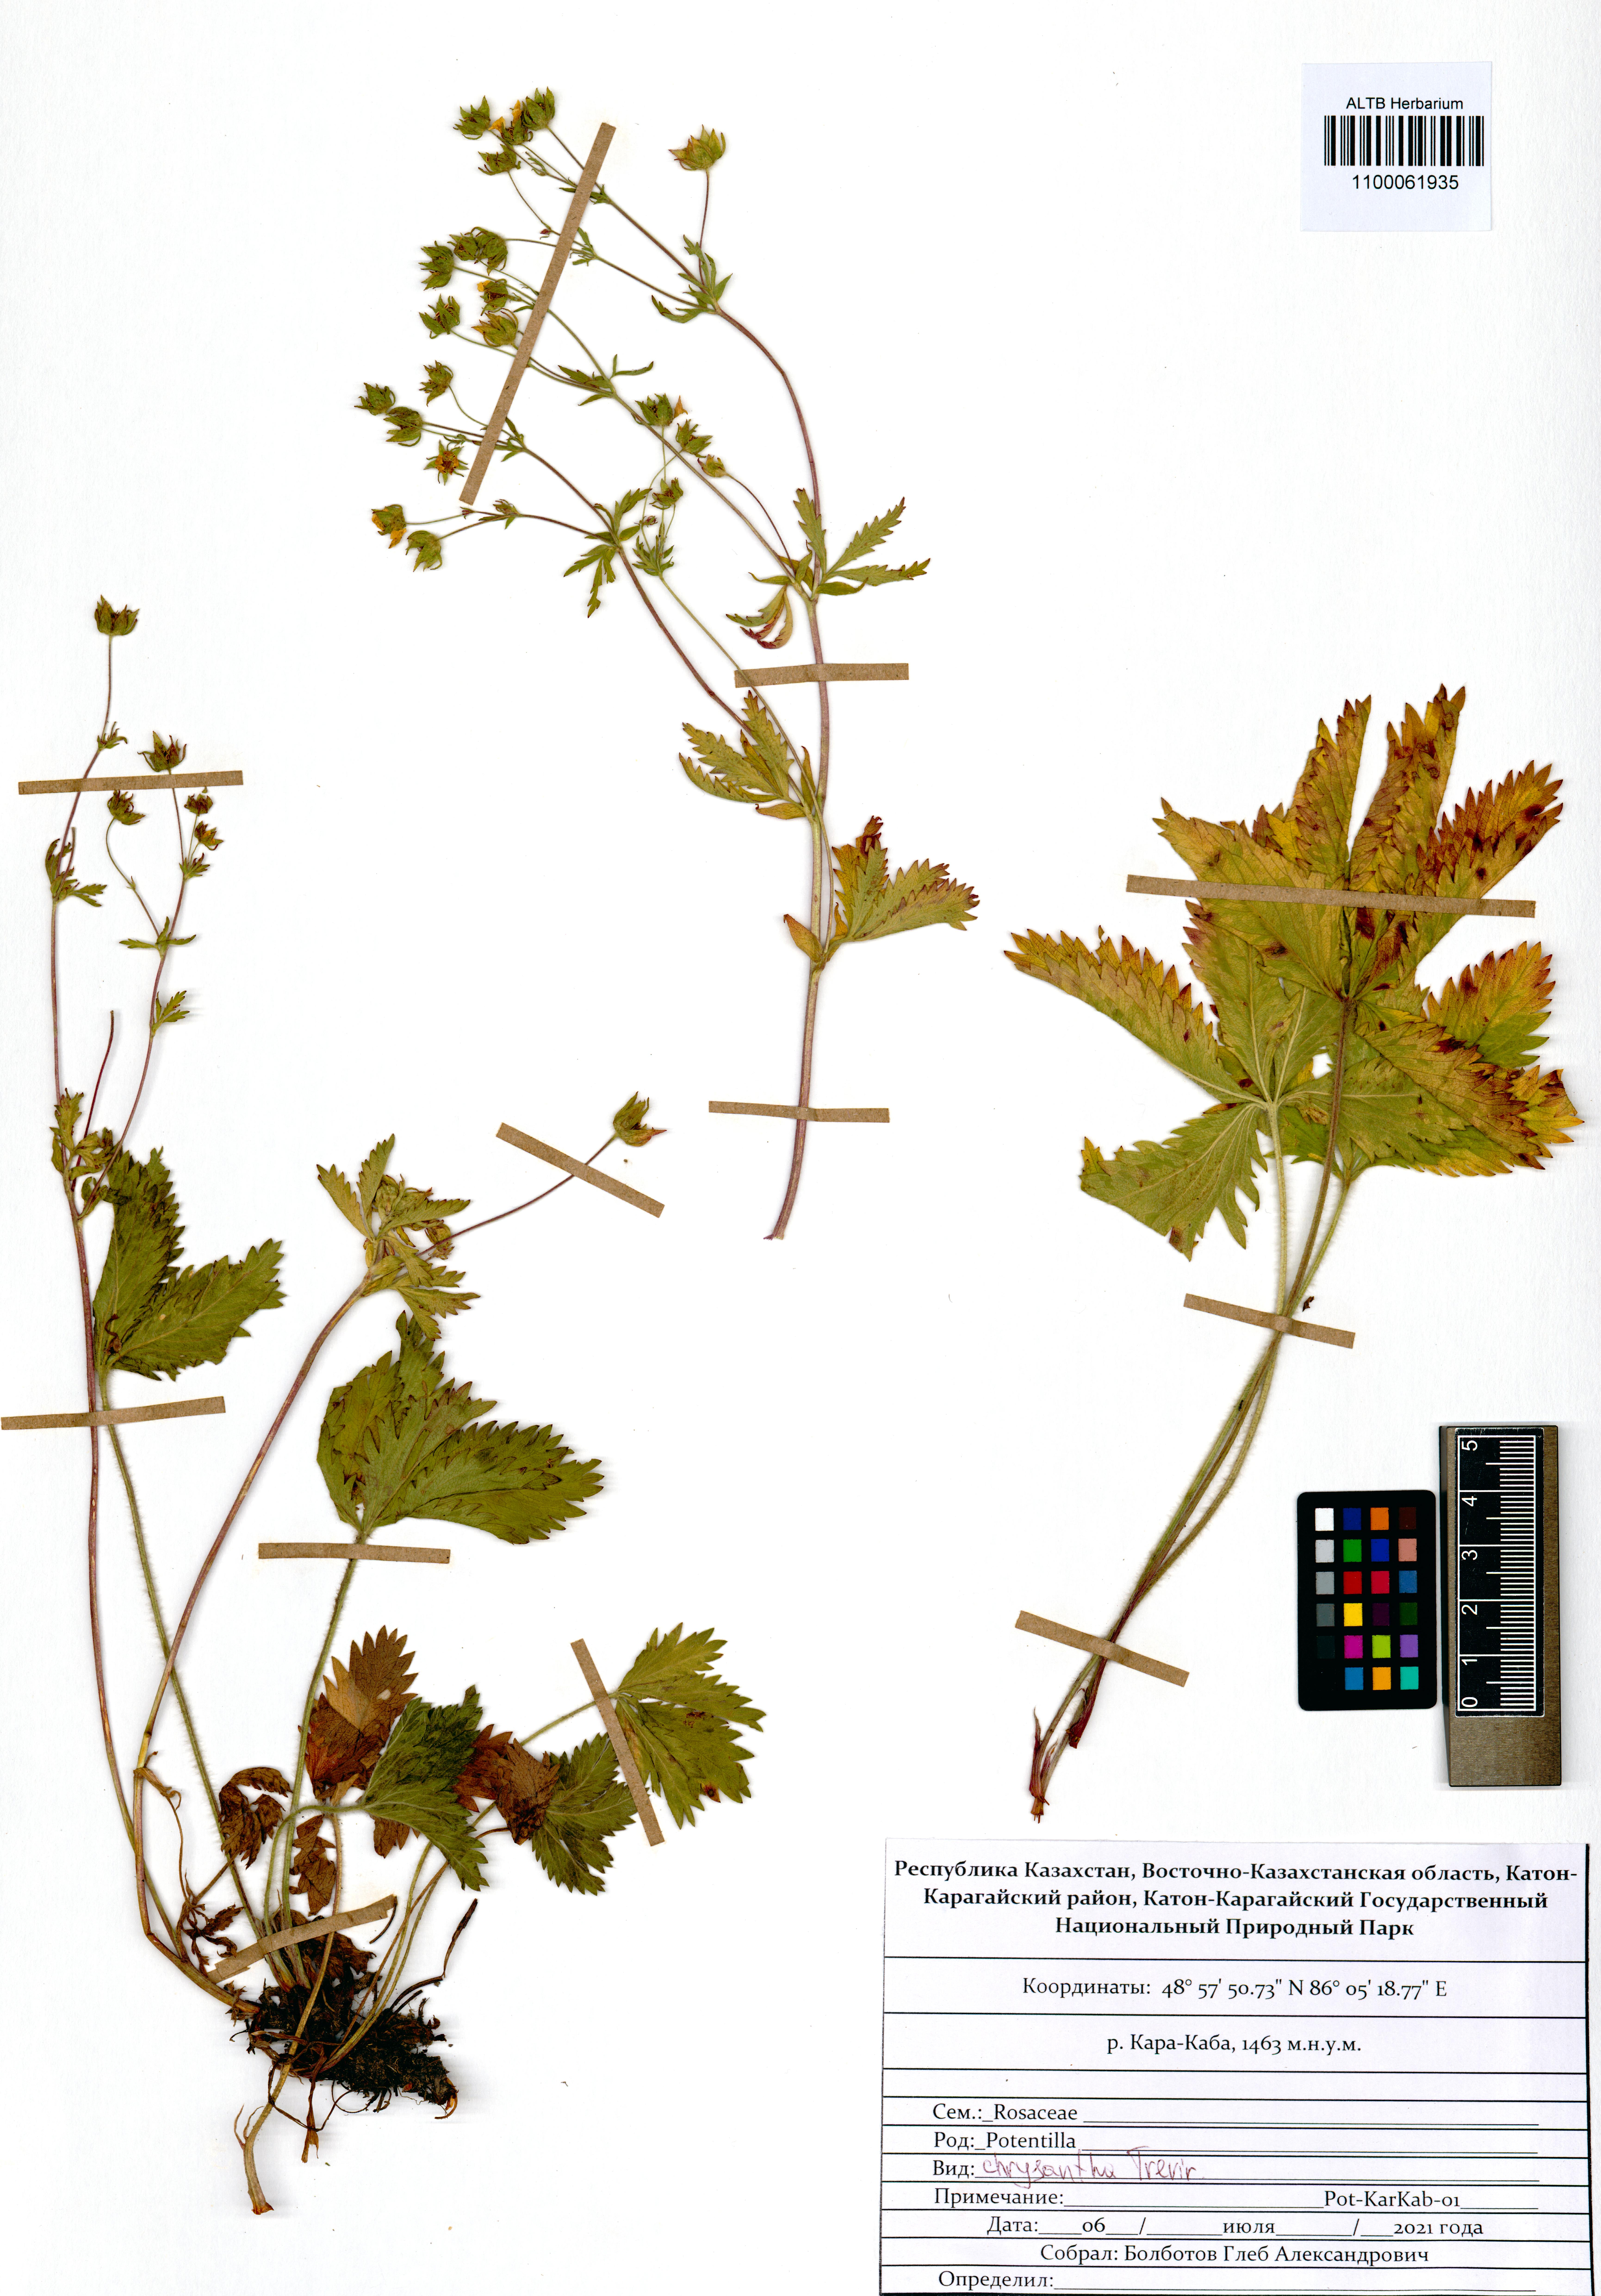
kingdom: Plantae
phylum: Tracheophyta
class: Magnoliopsida
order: Rosales
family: Rosaceae
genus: Potentilla
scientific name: Potentilla chrysantha
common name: Thuringian cinquefoil
